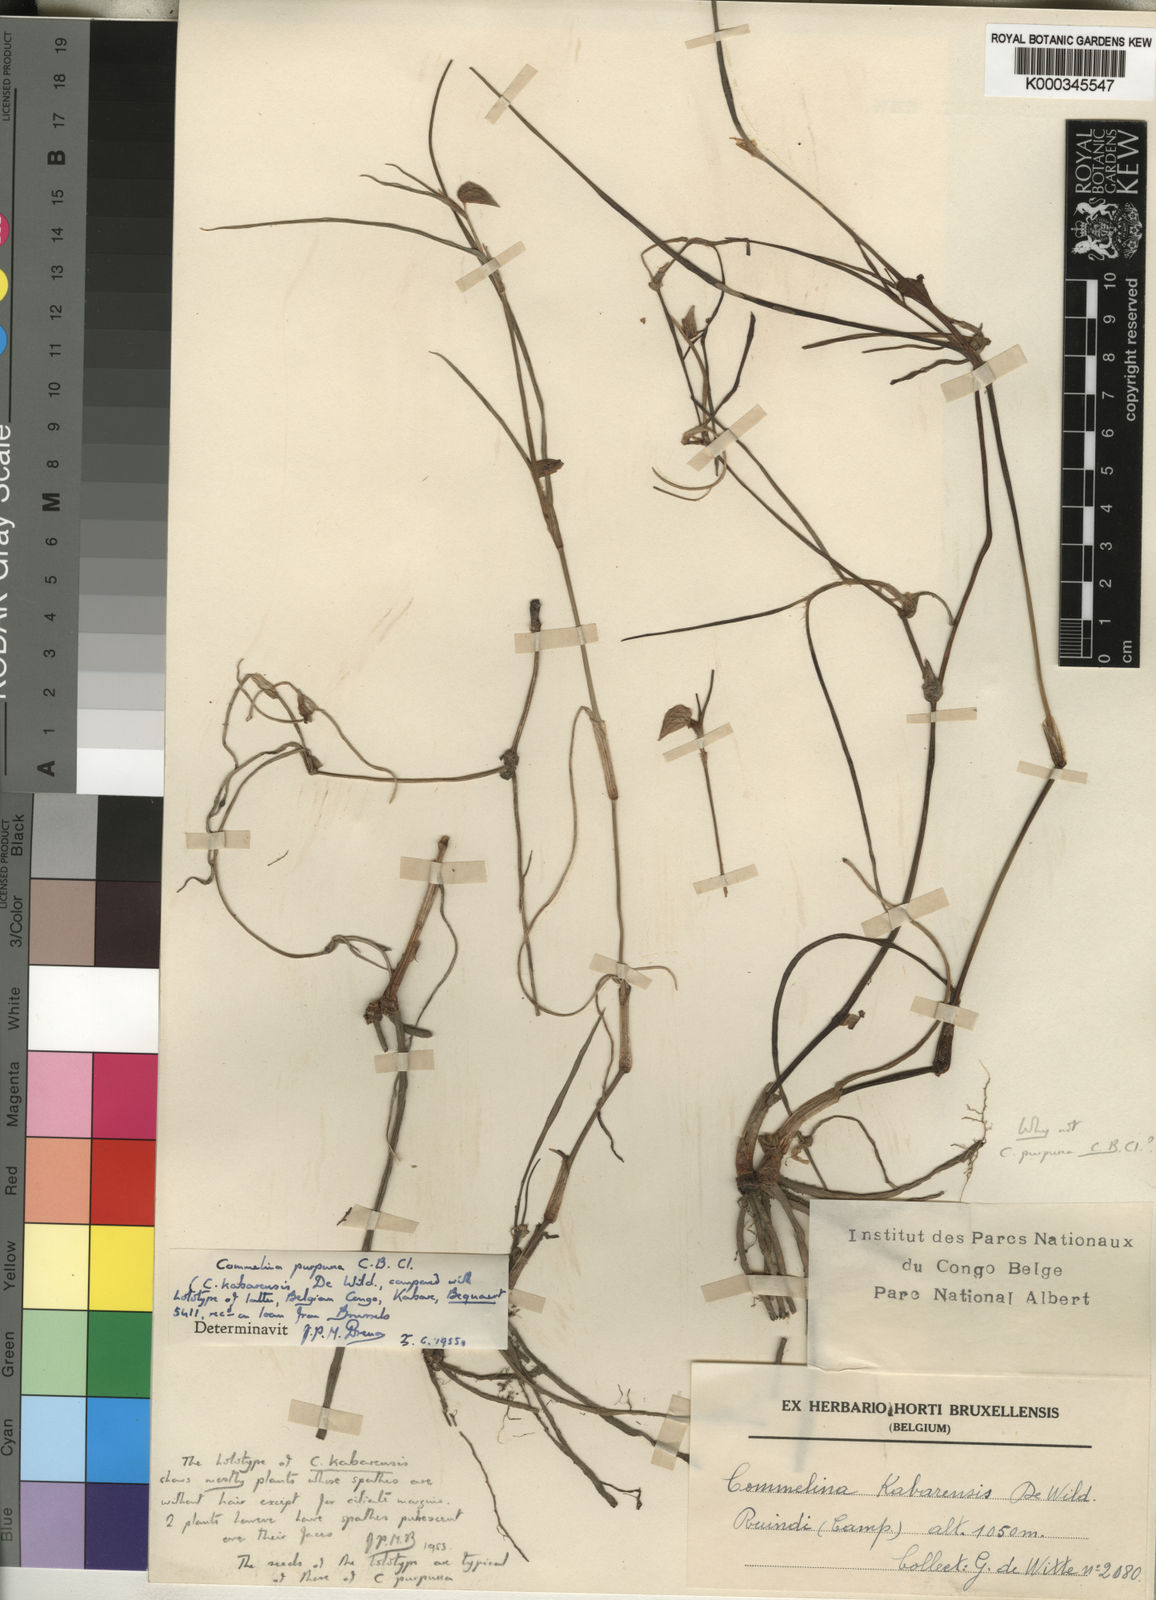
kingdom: Plantae
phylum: Tracheophyta
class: Liliopsida
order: Commelinales
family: Commelinaceae
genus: Commelina
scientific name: Commelina purpurea
